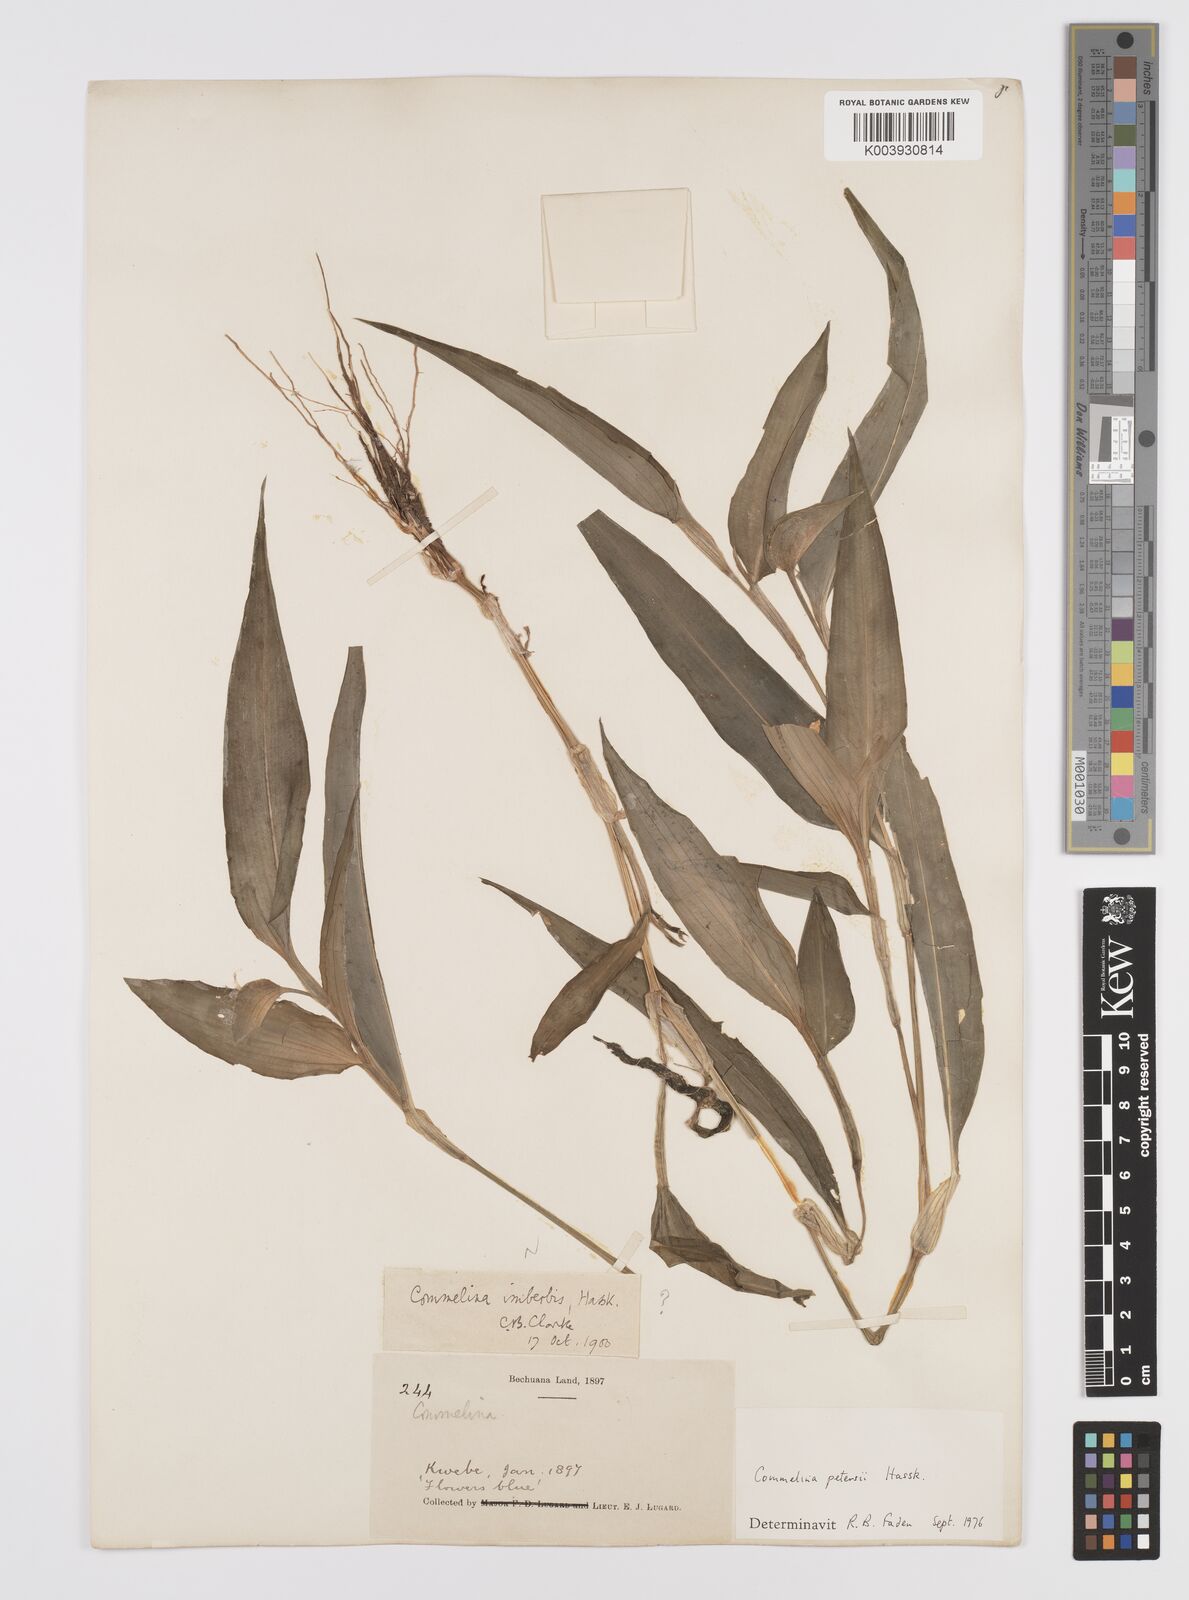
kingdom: Plantae
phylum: Tracheophyta
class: Liliopsida
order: Commelinales
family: Commelinaceae
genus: Commelina
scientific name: Commelina petersii
